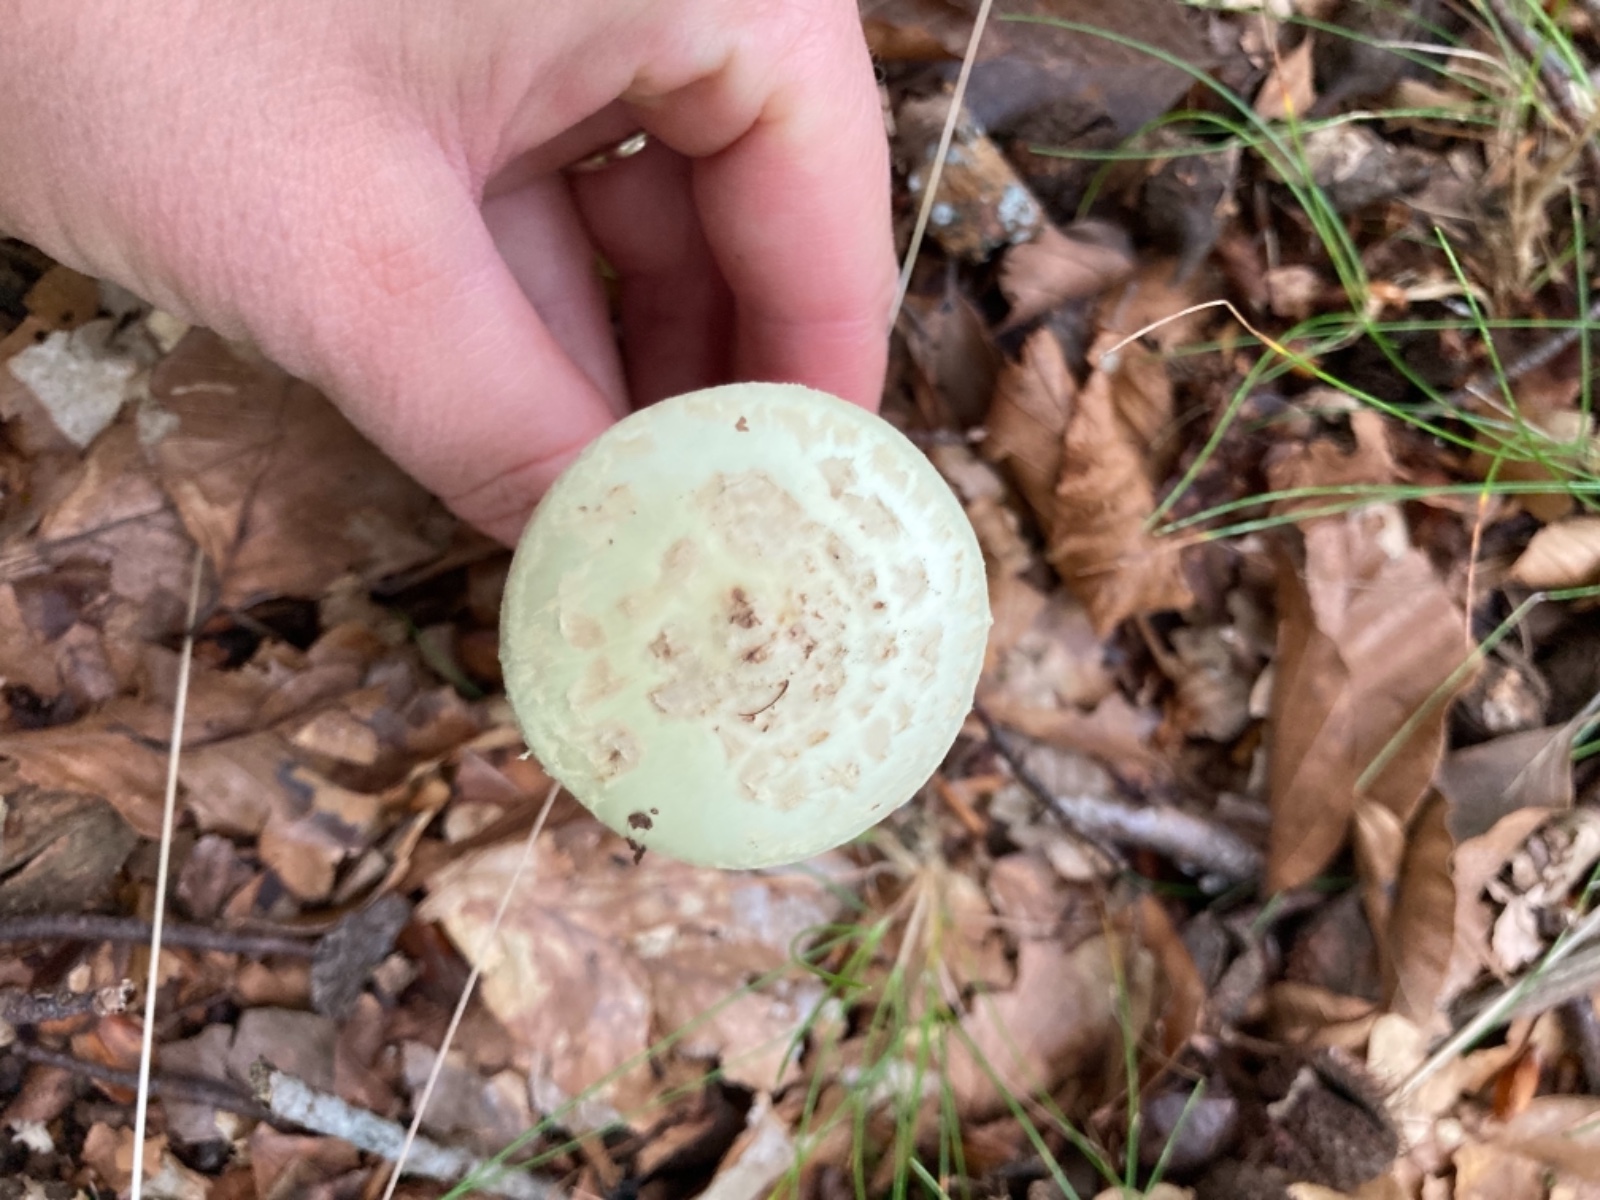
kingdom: Fungi
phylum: Basidiomycota
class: Agaricomycetes
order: Agaricales
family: Amanitaceae
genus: Amanita
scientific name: Amanita citrina
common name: kugleknoldet fluesvamp
